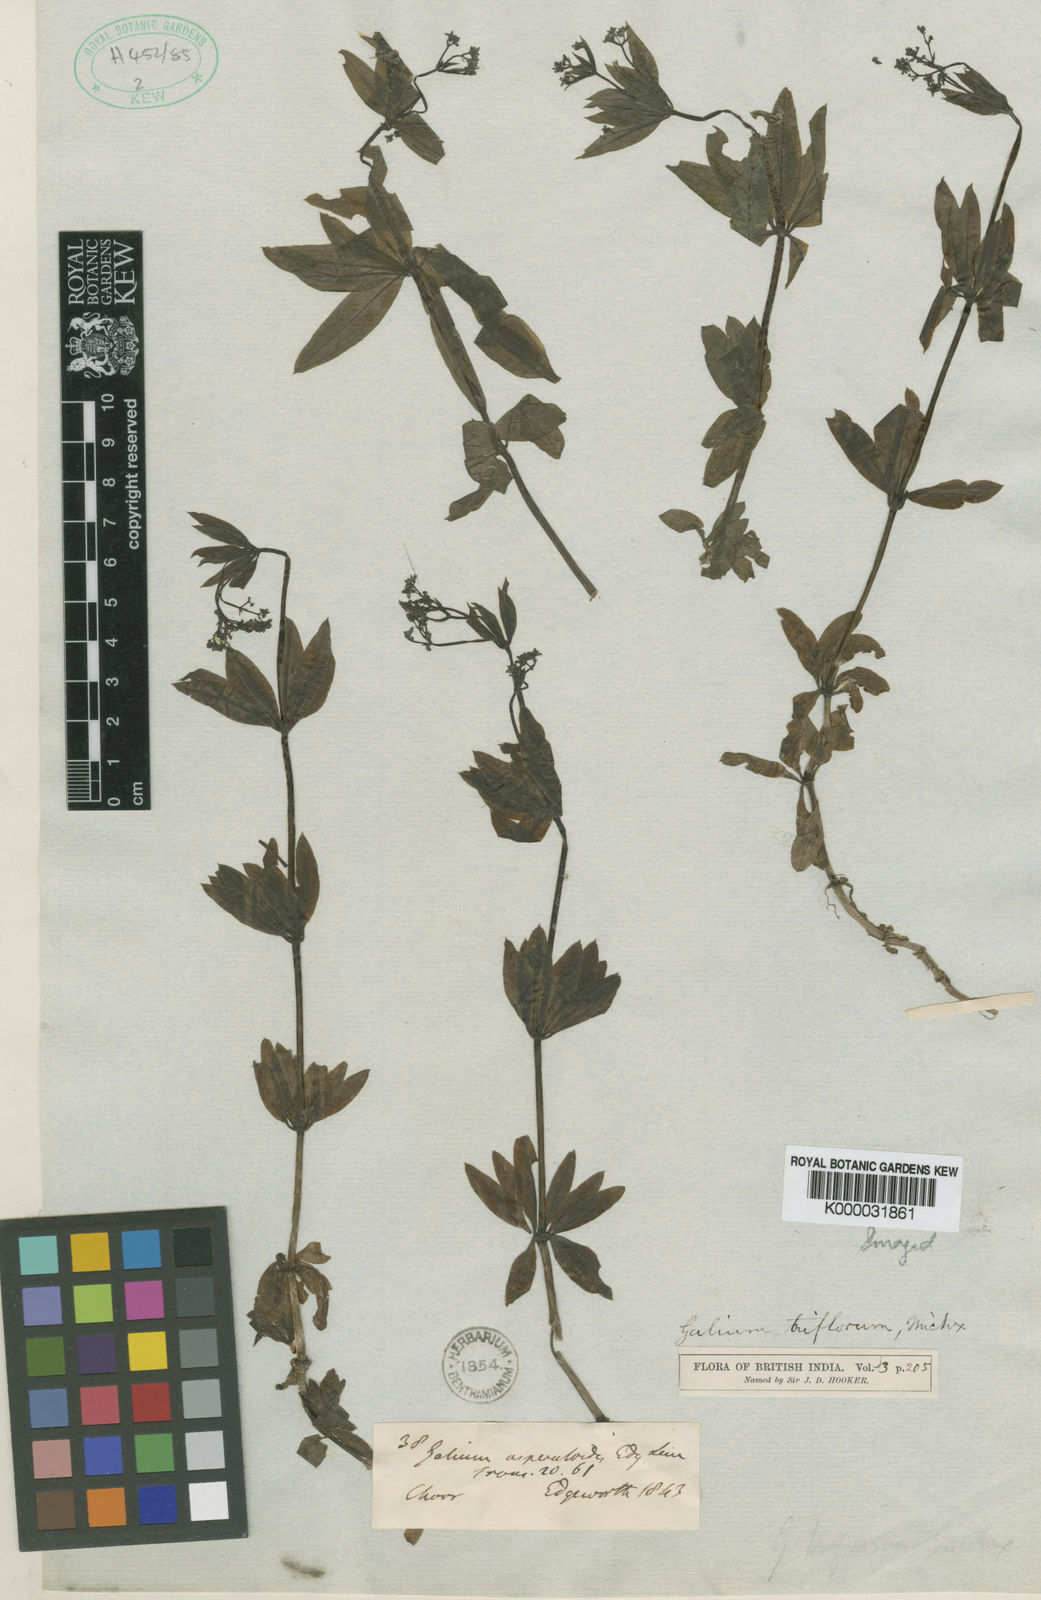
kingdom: Plantae
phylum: Tracheophyta
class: Magnoliopsida
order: Gentianales
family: Rubiaceae
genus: Galium
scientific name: Galium triflorum
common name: Fragrant bedstraw
